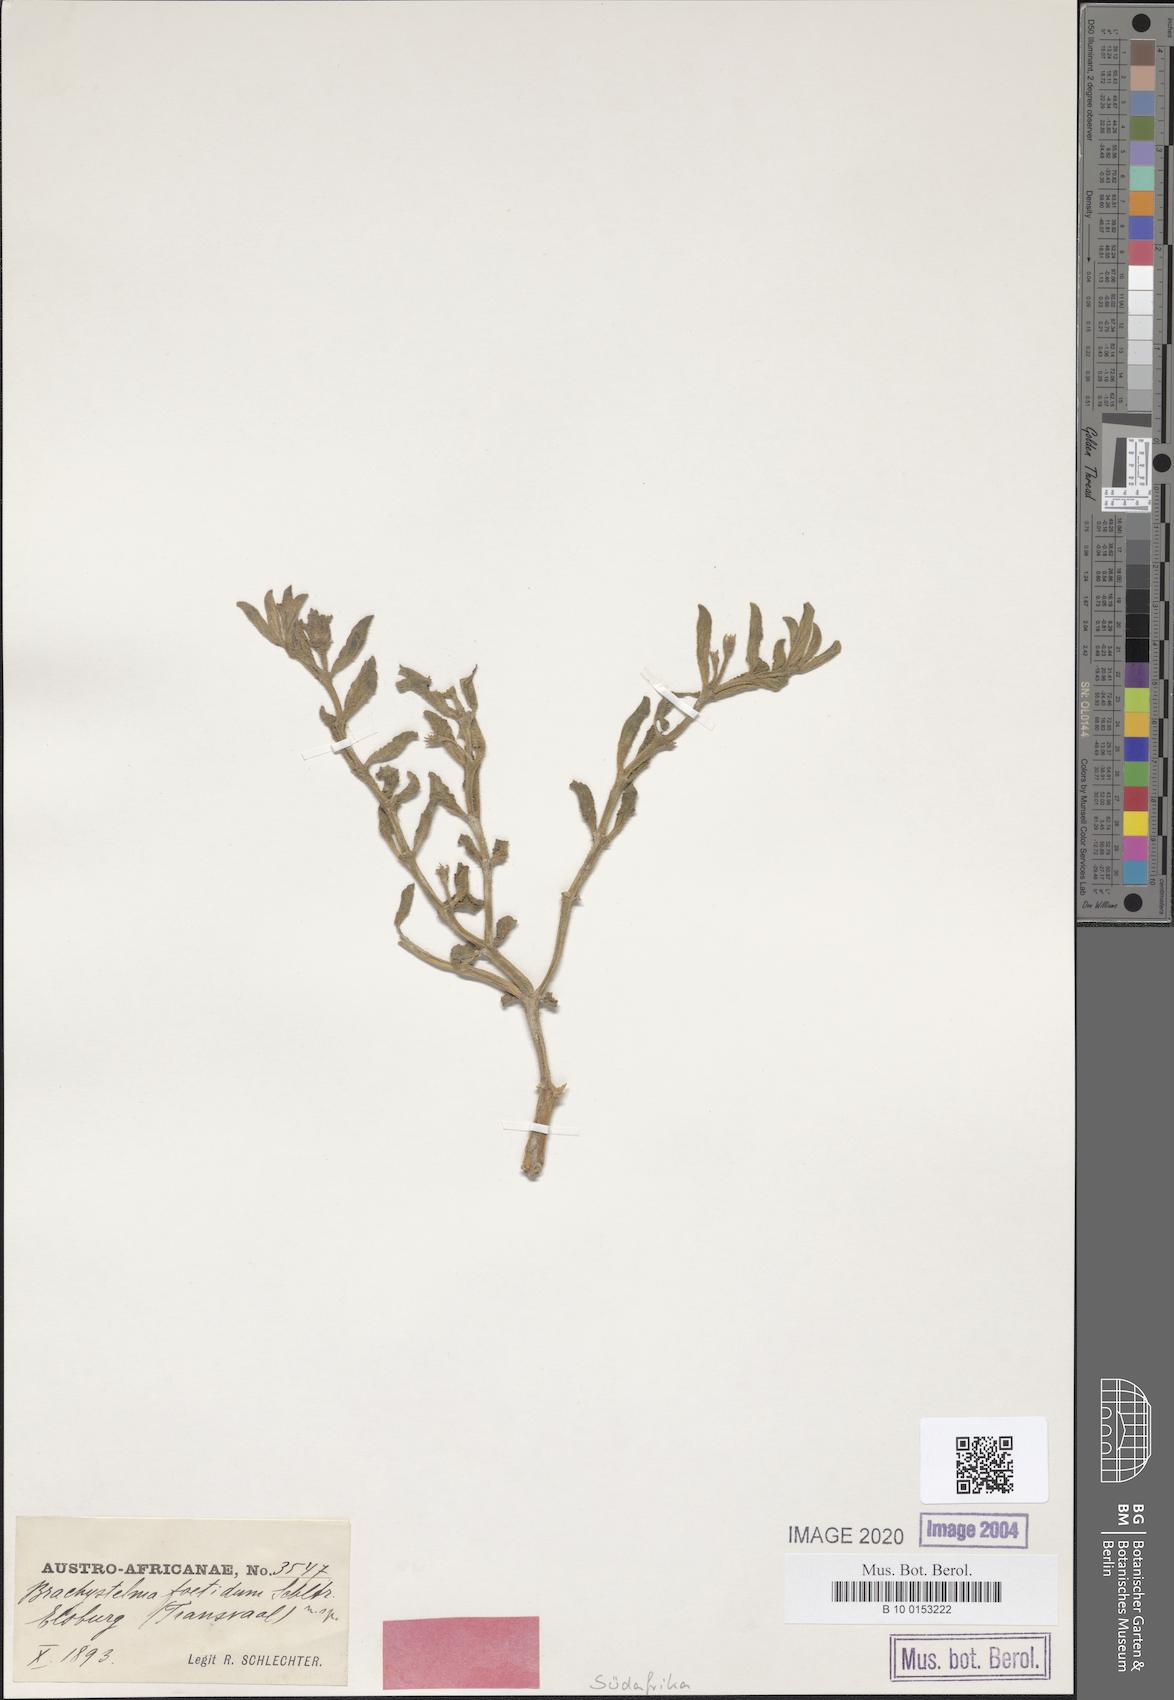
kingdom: Plantae
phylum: Tracheophyta
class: Magnoliopsida
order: Gentianales
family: Apocynaceae
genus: Ceropegia
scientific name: Ceropegia rehmannii
